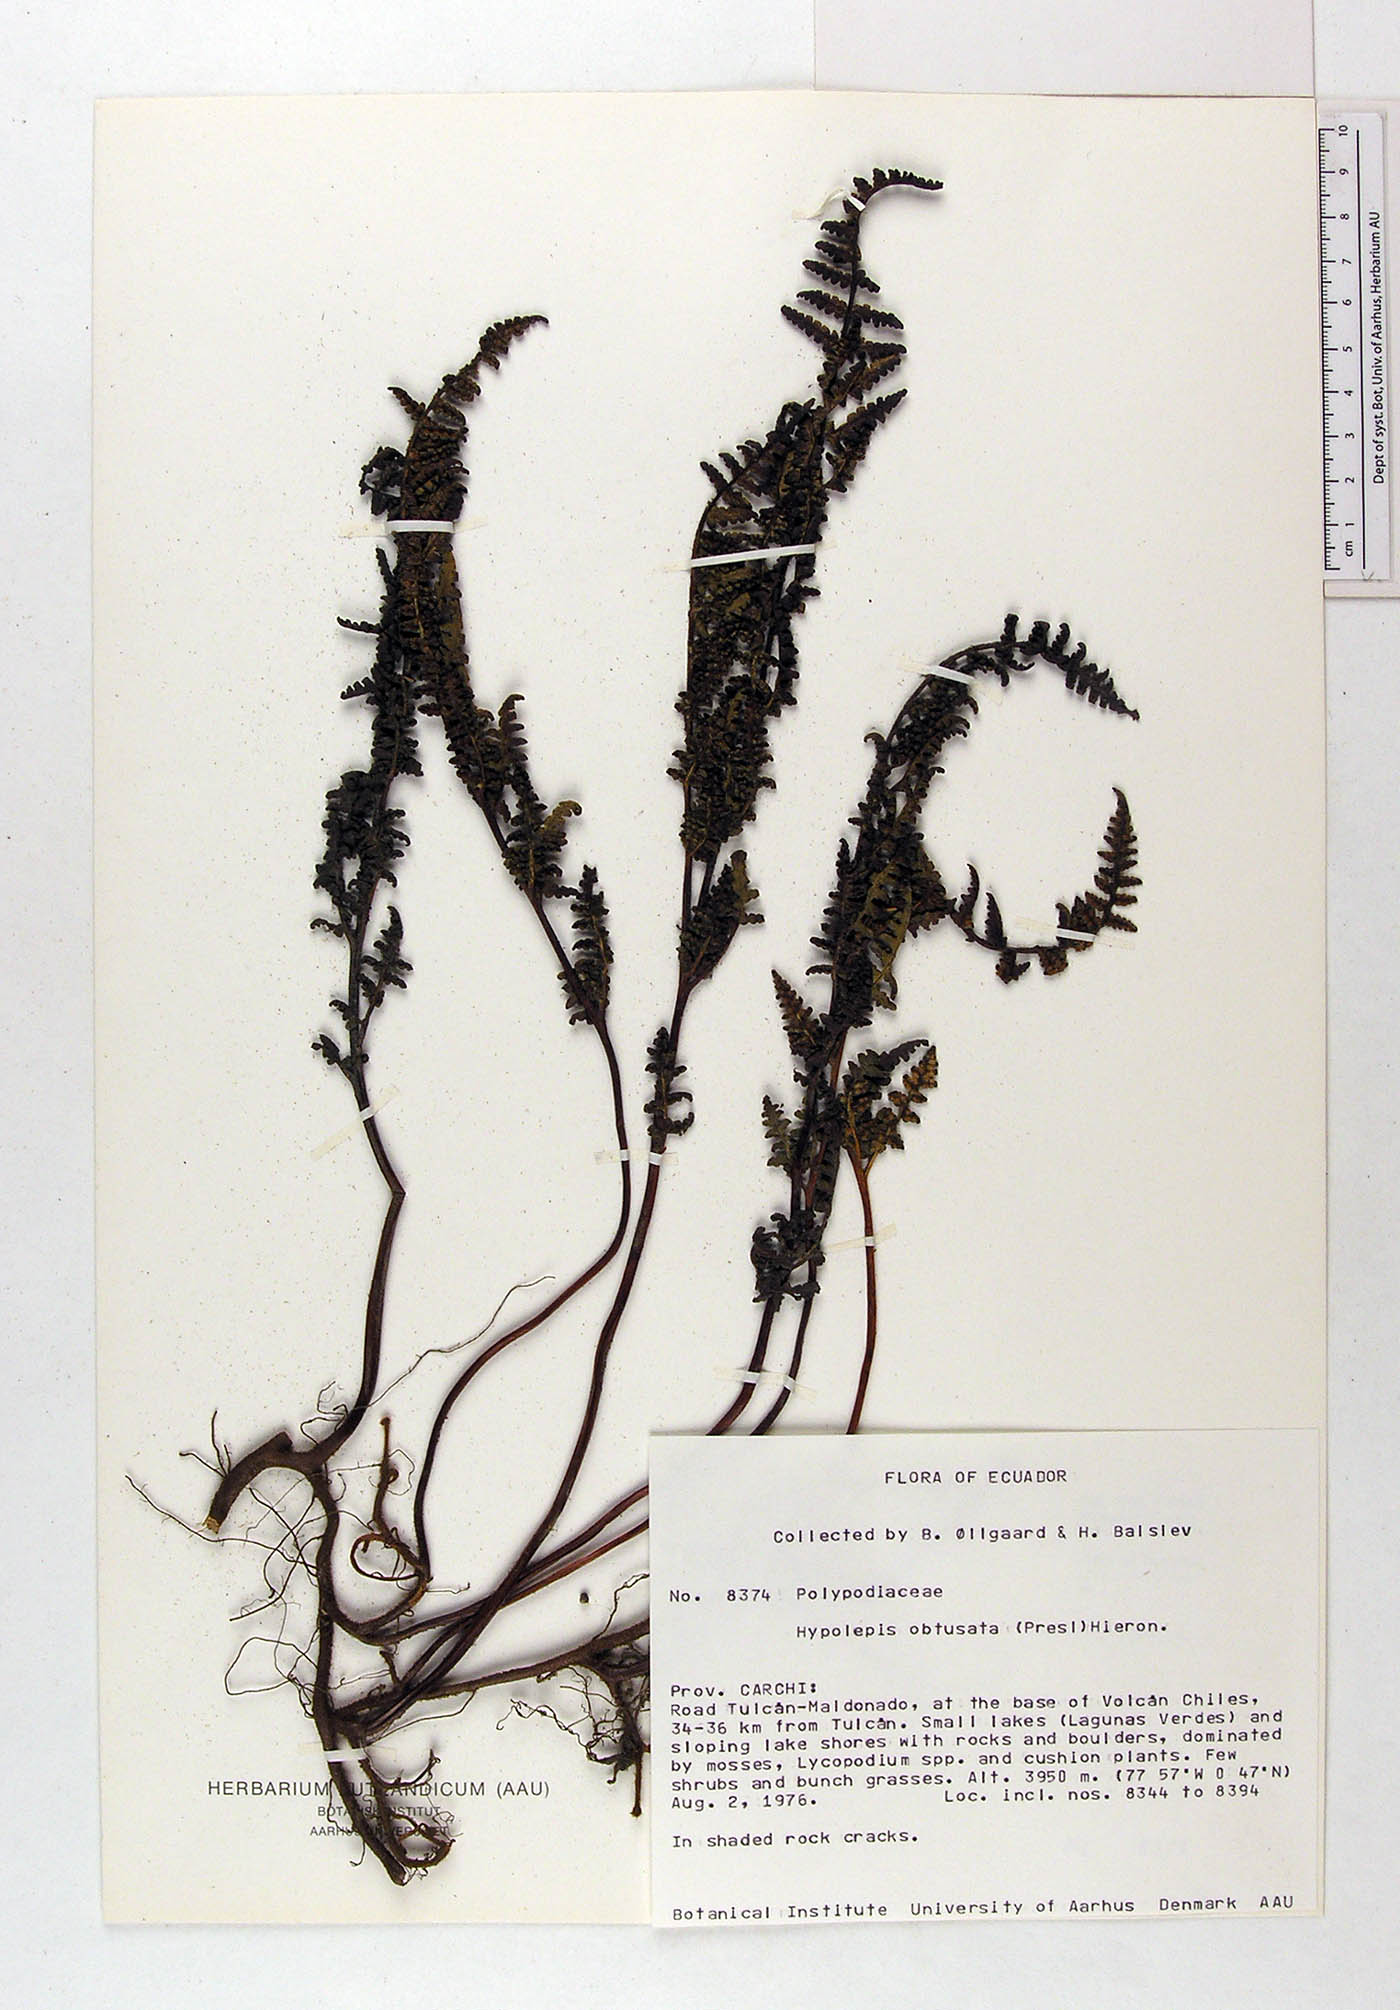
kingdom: Plantae
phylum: Tracheophyta
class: Polypodiopsida
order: Polypodiales
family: Dennstaedtiaceae
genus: Hypolepis
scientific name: Hypolepis obtusata
